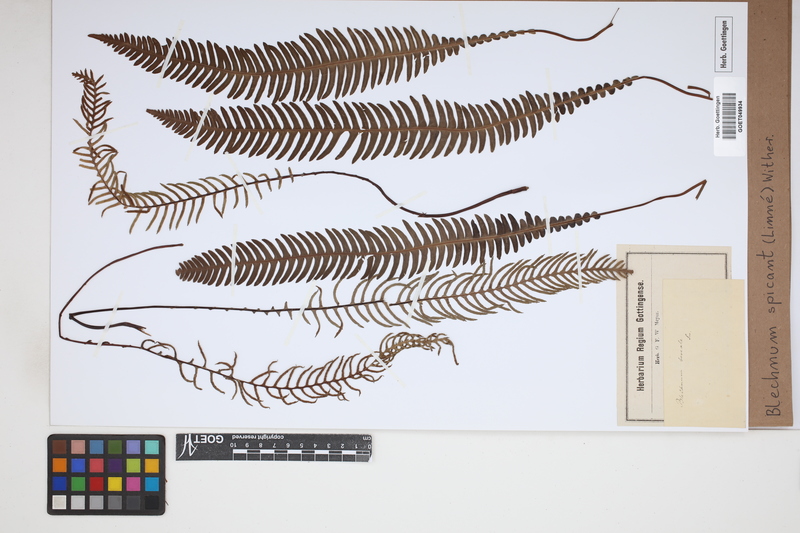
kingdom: Plantae
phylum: Tracheophyta
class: Polypodiopsida
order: Polypodiales
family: Blechnaceae
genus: Struthiopteris
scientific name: Struthiopteris spicant
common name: Deer fern
